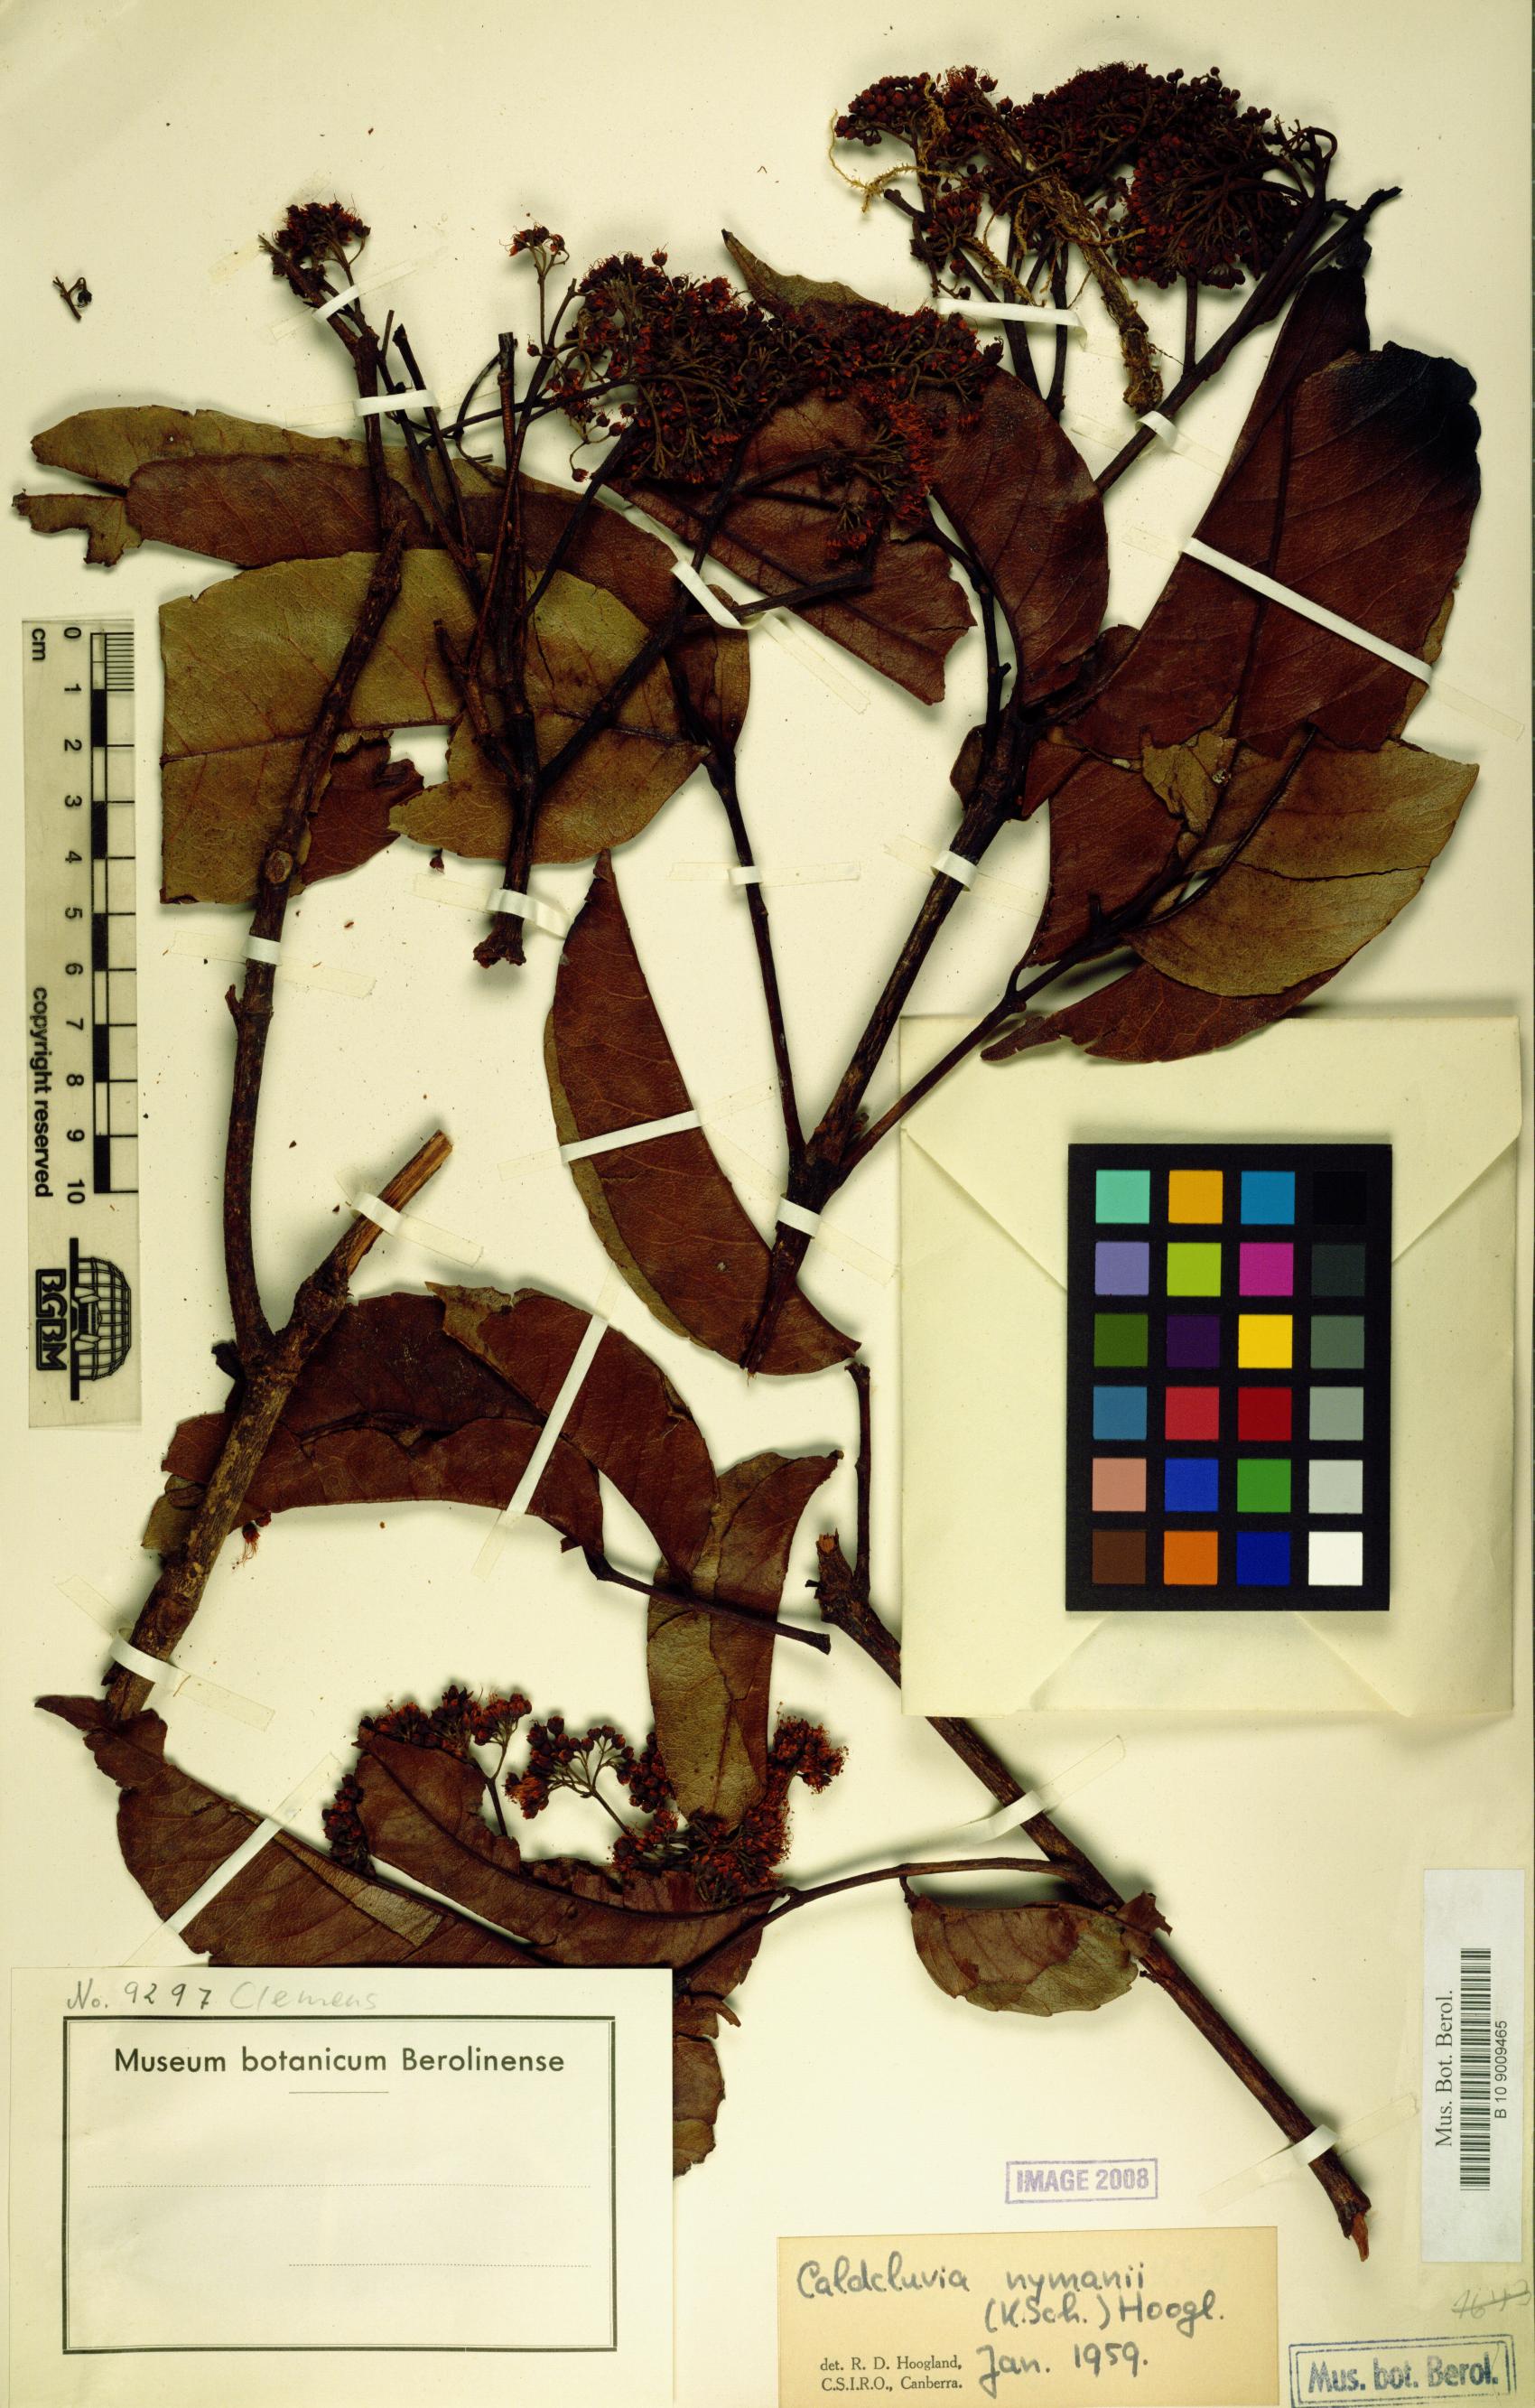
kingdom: Plantae
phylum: Tracheophyta
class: Magnoliopsida
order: Oxalidales
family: Cunoniaceae
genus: Opocunonia
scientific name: Opocunonia nymanii
